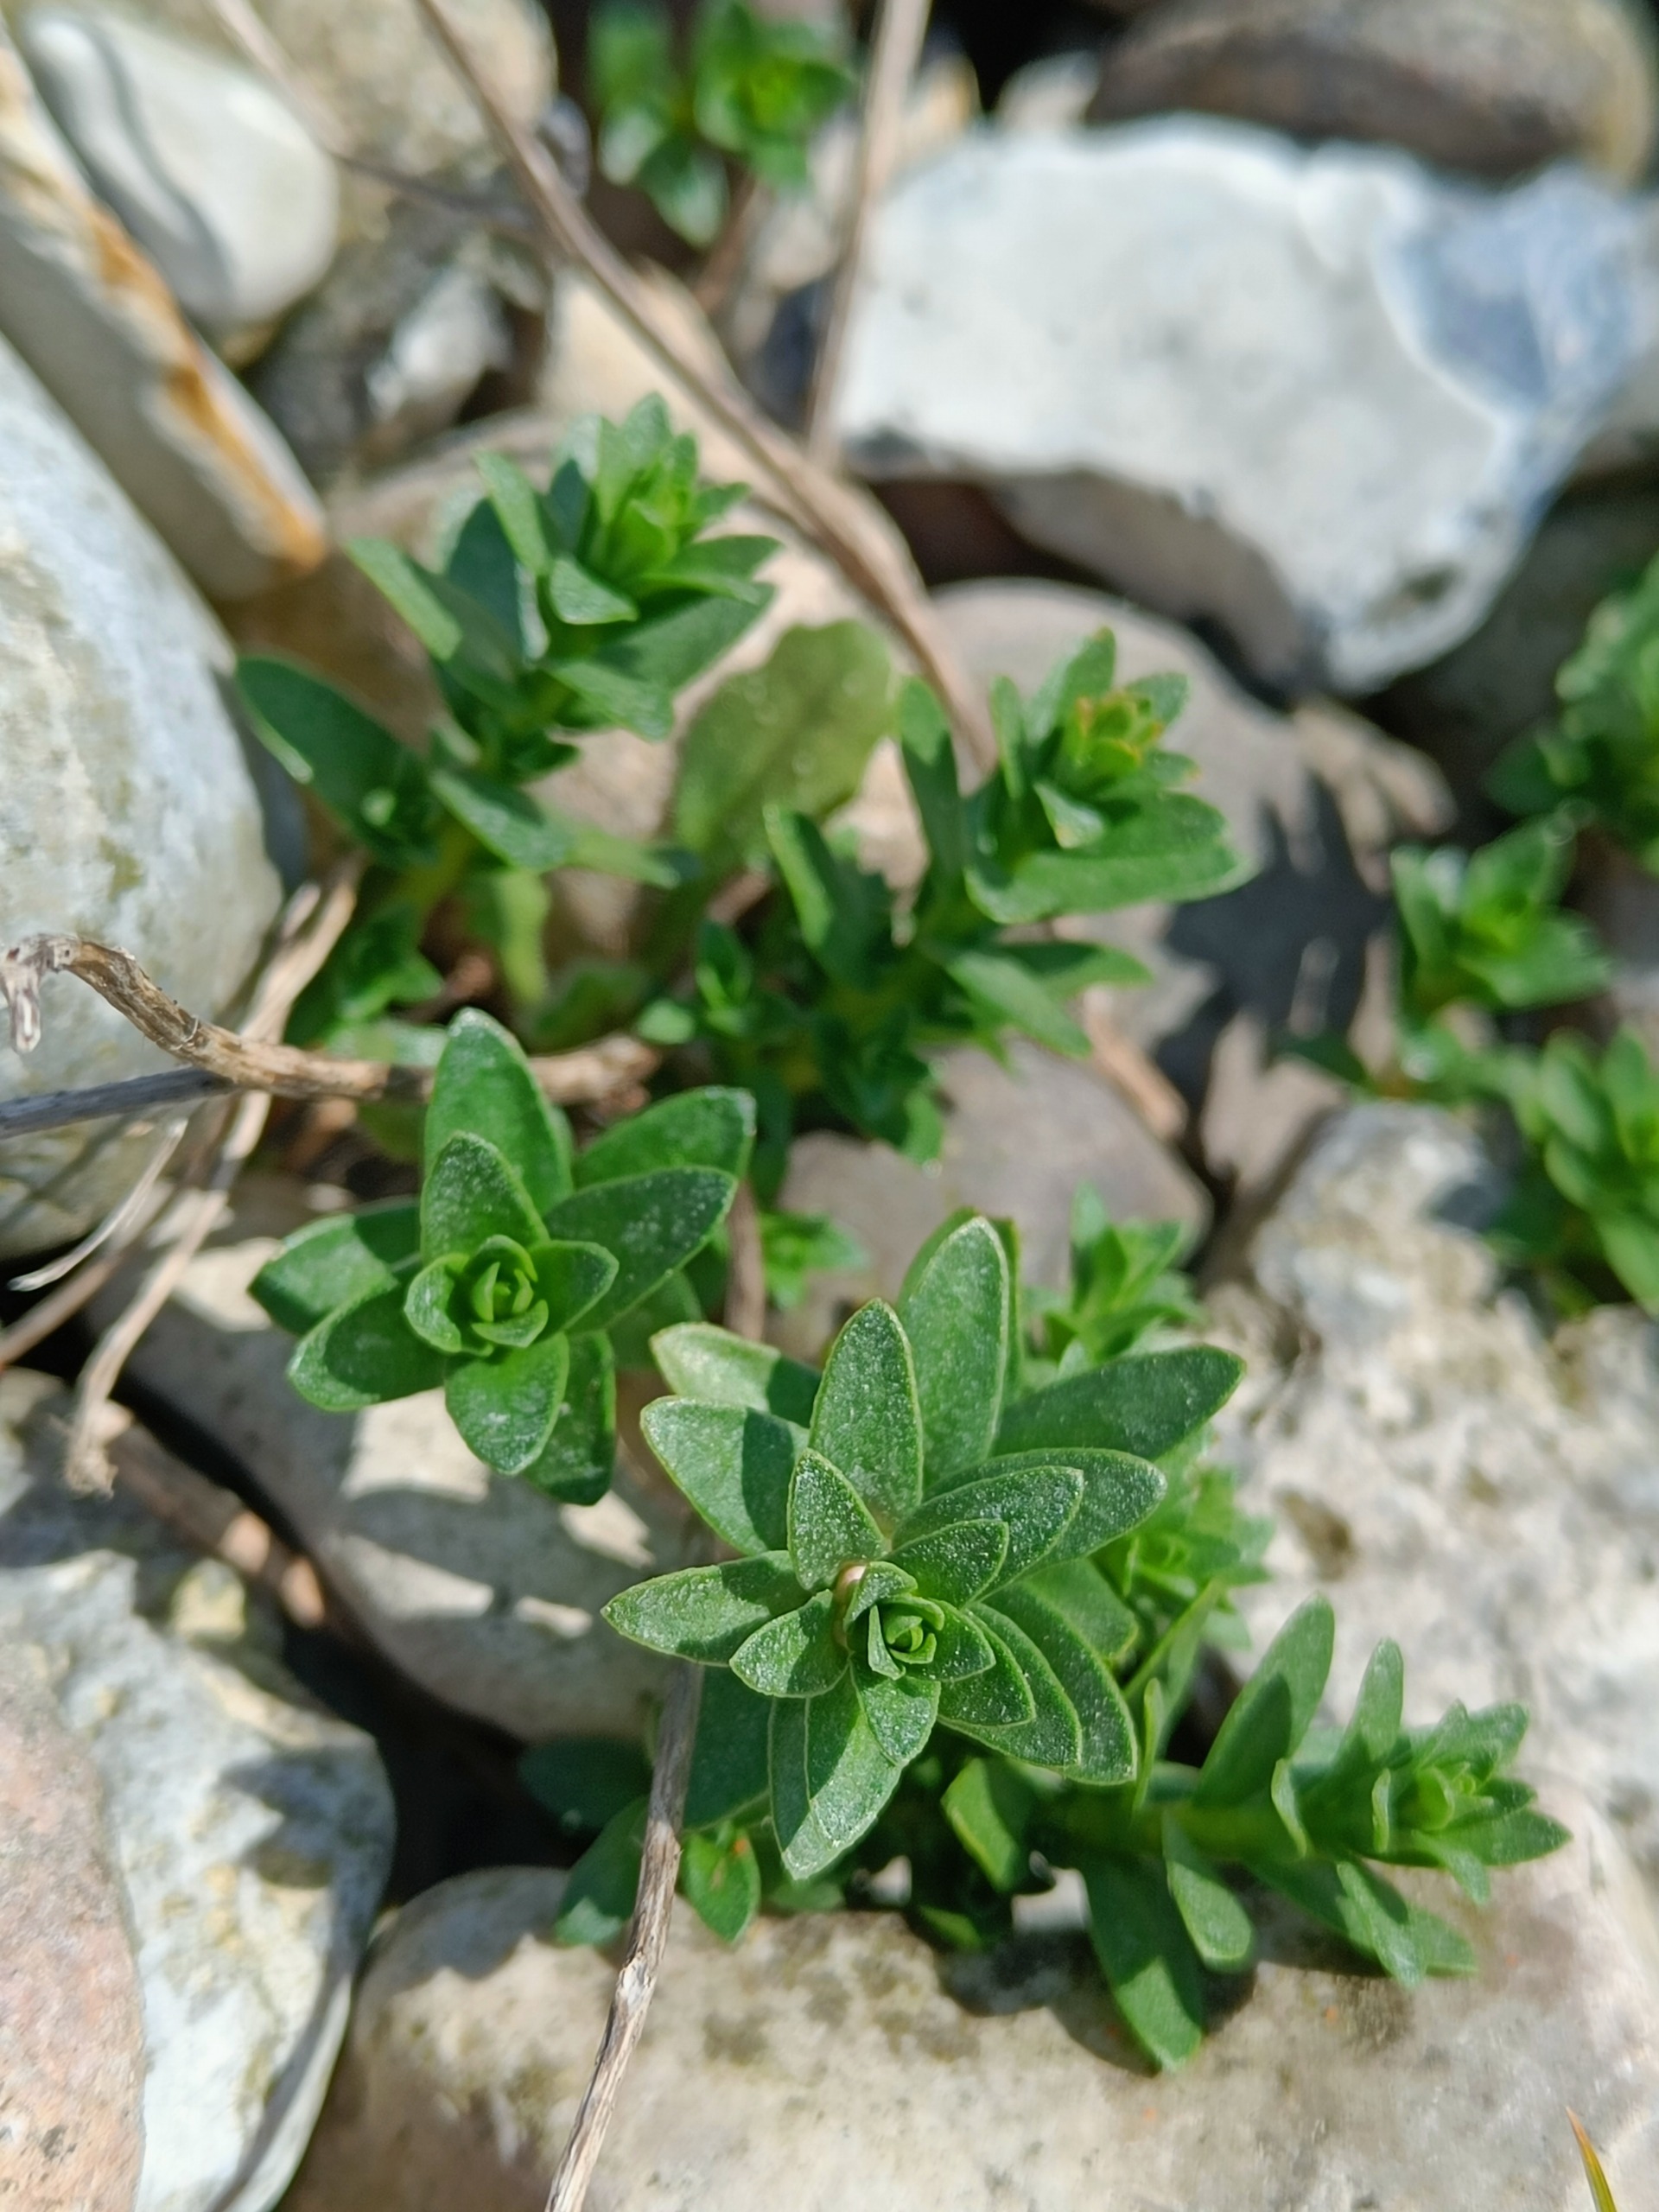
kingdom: Plantae
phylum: Tracheophyta
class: Magnoliopsida
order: Ericales
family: Primulaceae
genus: Lysimachia
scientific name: Lysimachia maritima
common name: Sandkryb
